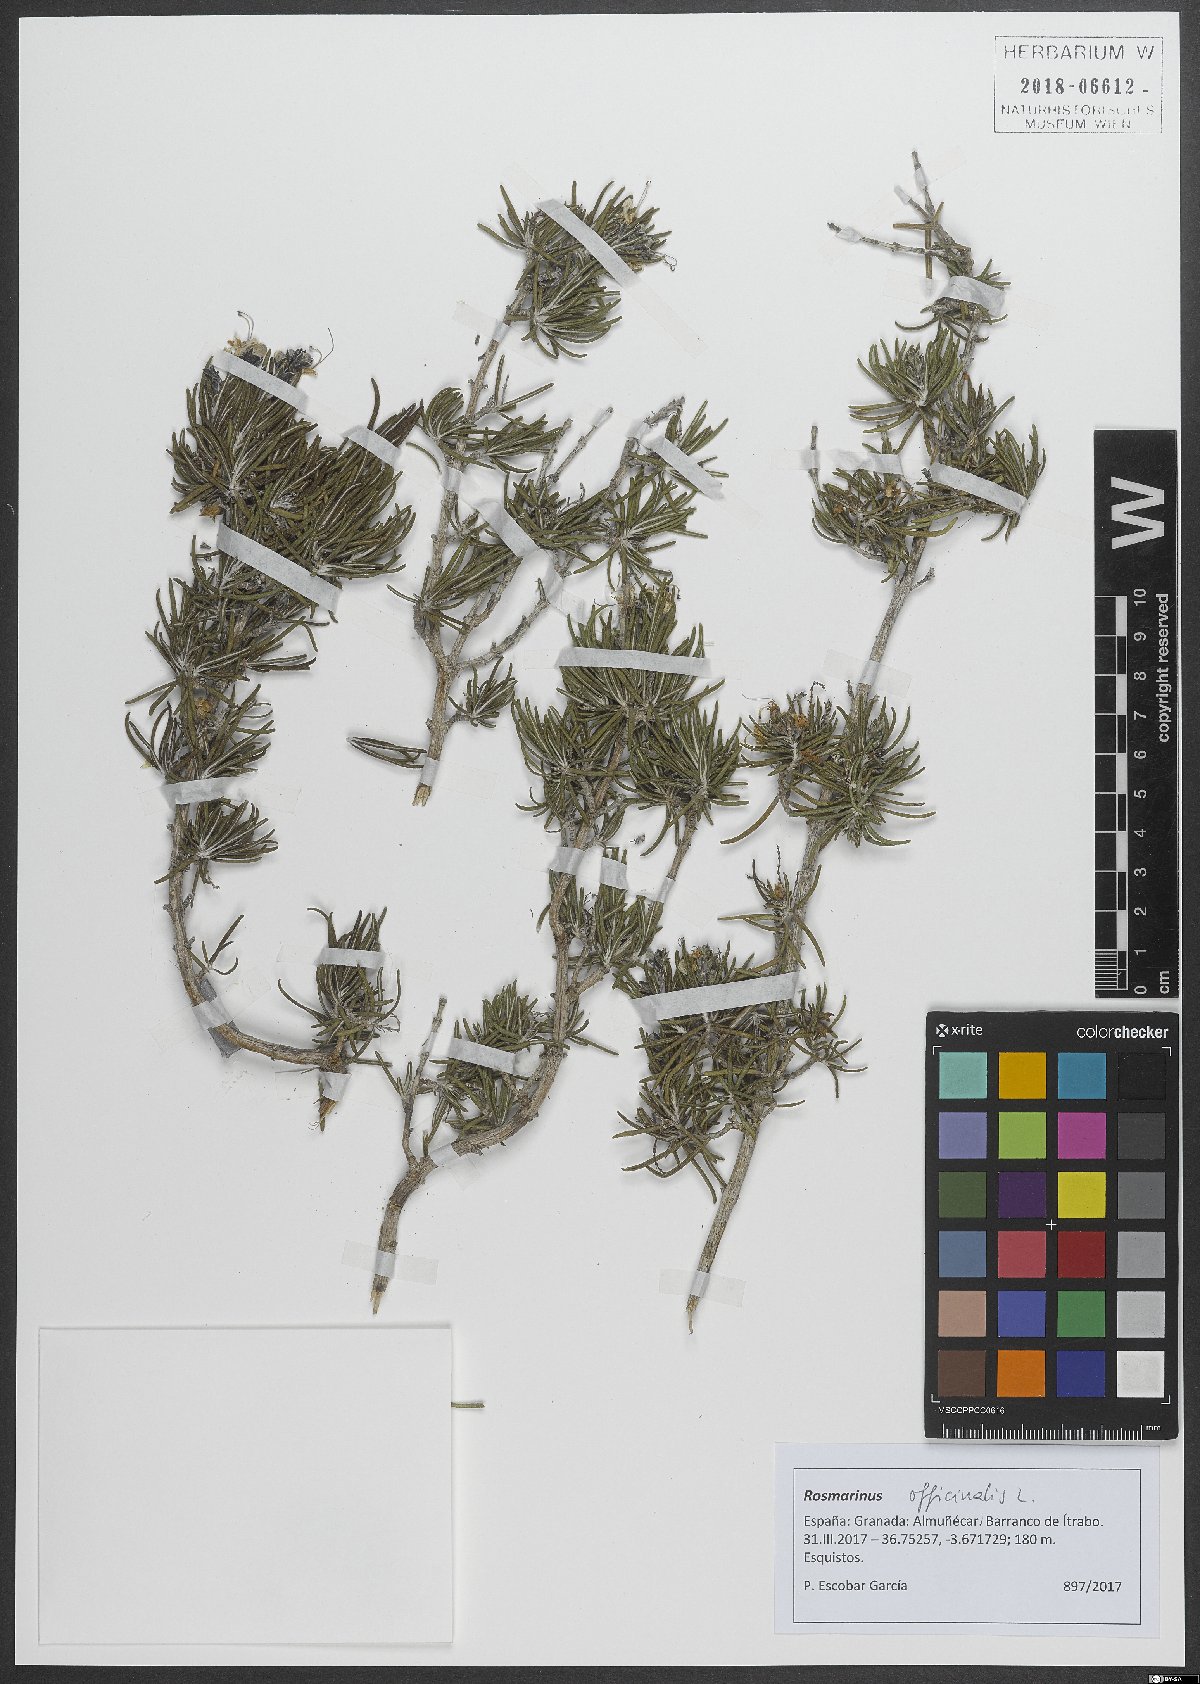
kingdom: Plantae
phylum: Tracheophyta
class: Magnoliopsida
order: Lamiales
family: Lamiaceae
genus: Salvia
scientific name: Salvia rosmarinus
